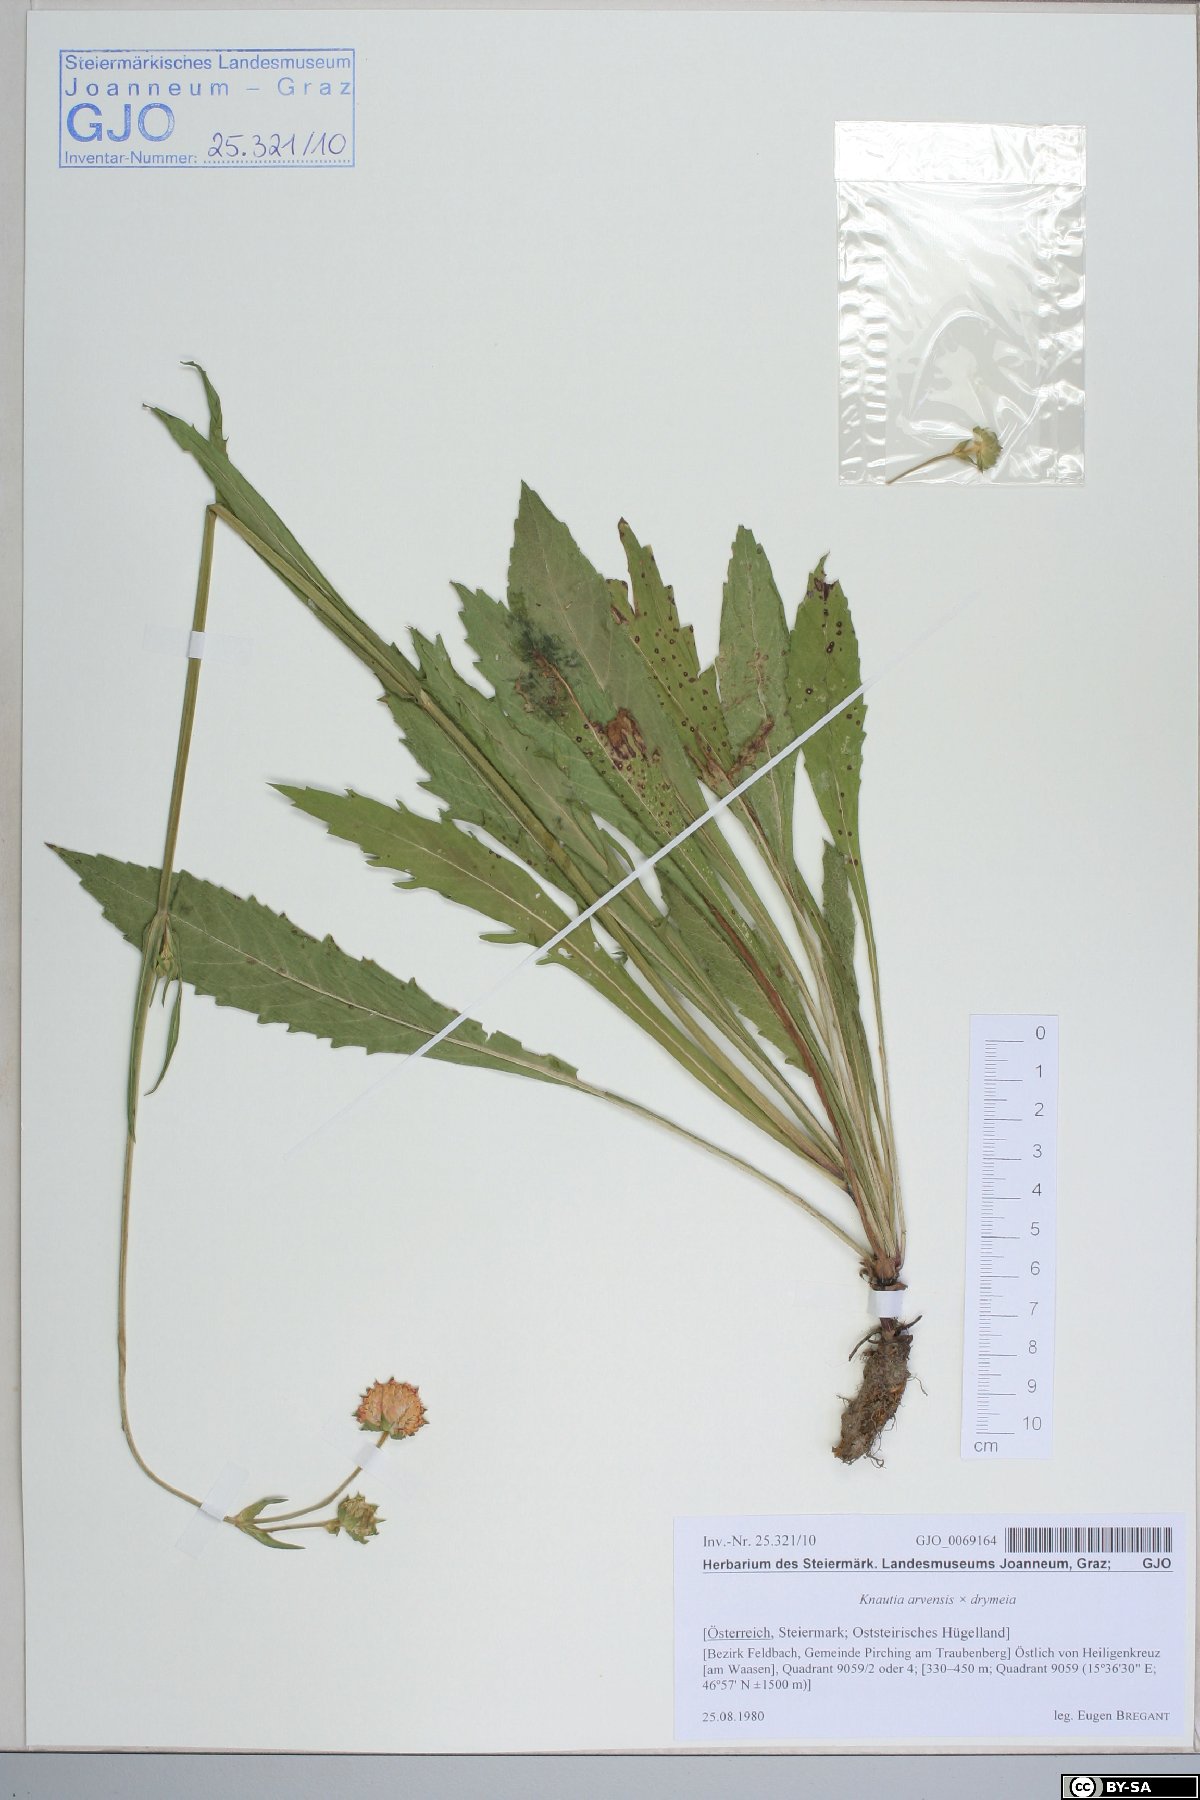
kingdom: Plantae
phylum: Tracheophyta
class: Magnoliopsida
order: Dipsacales
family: Dipsacaceae
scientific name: Dipsacaceae
